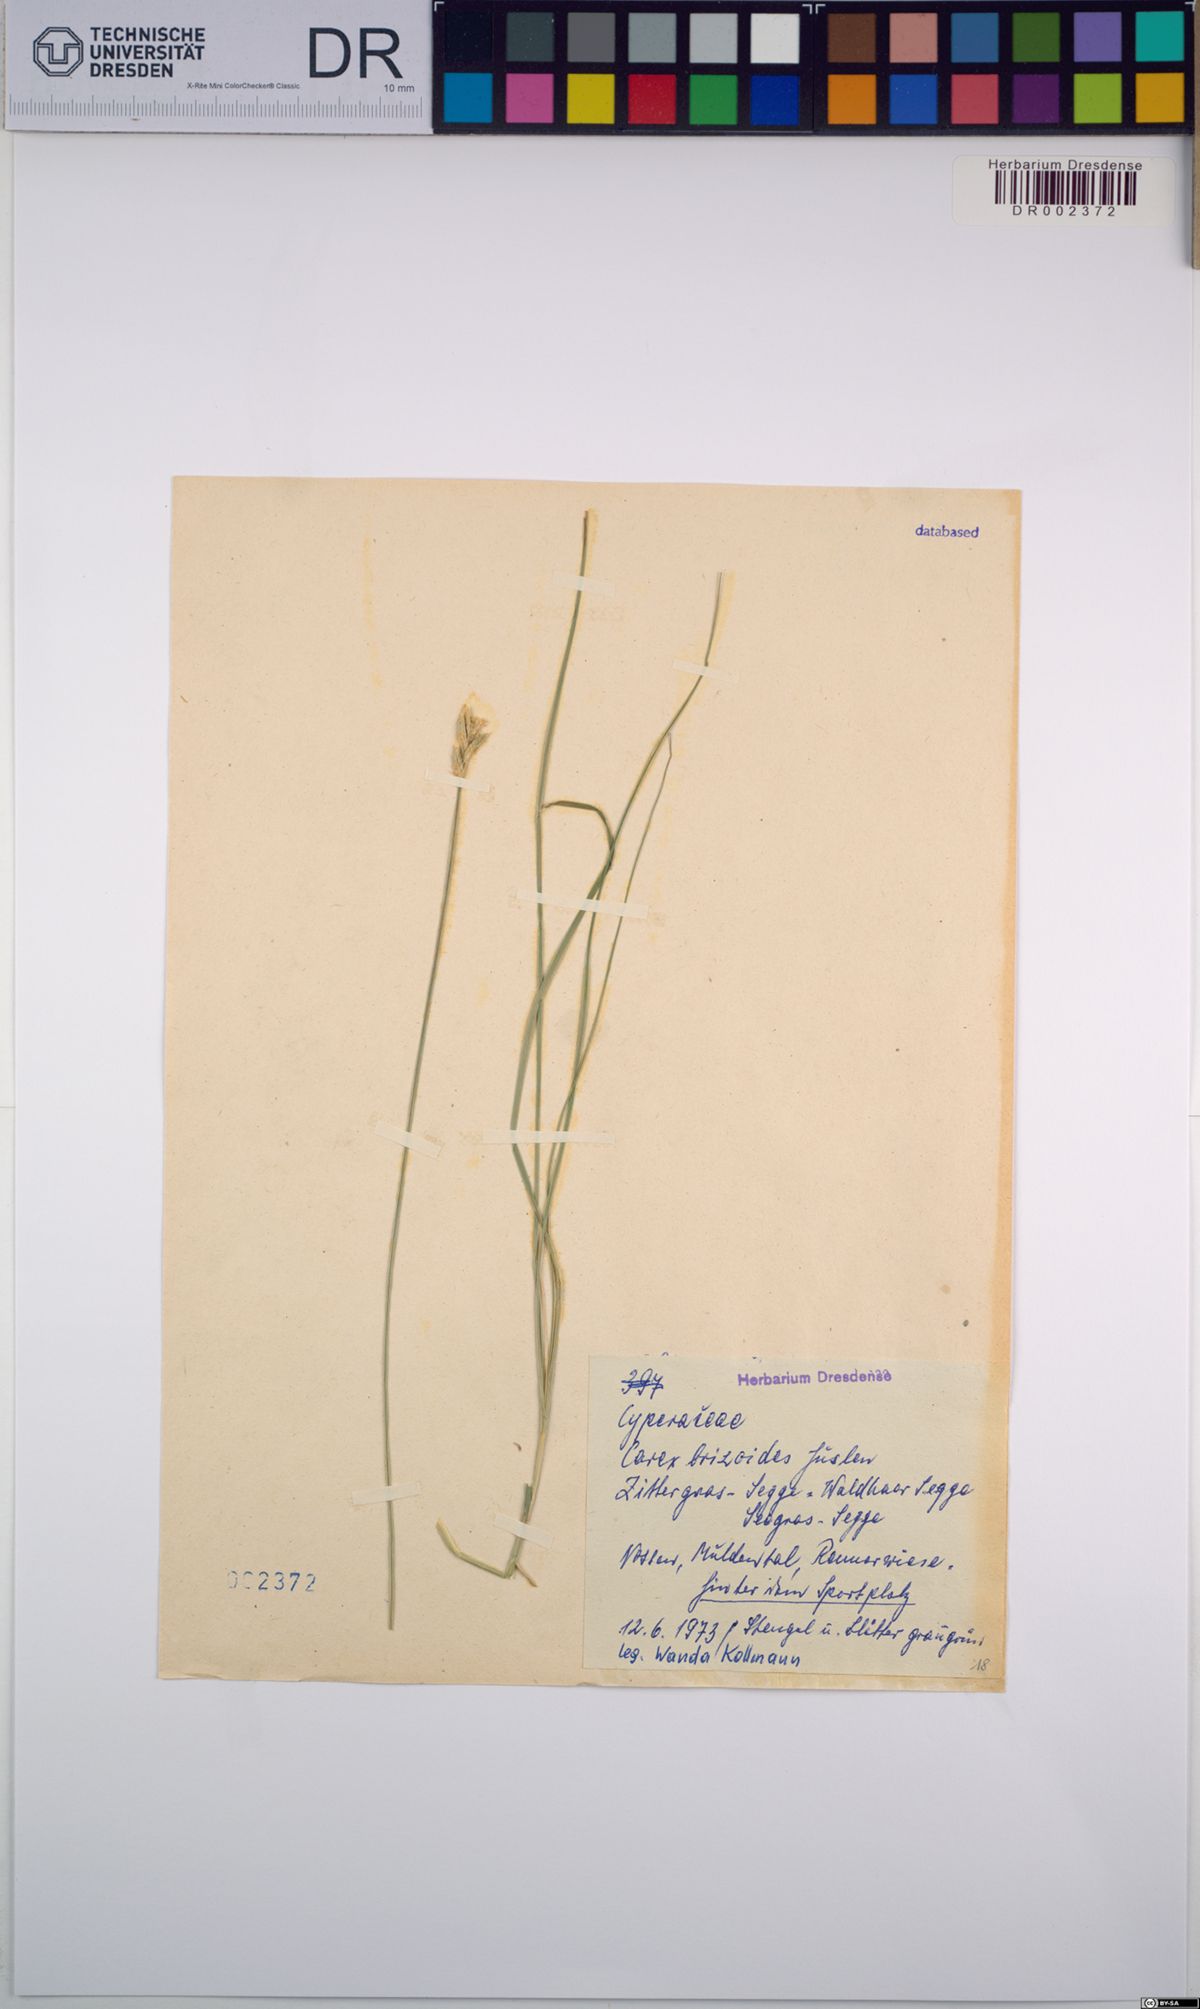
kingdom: Plantae
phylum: Tracheophyta
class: Liliopsida
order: Poales
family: Cyperaceae
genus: Carex
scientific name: Carex brizoides
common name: Quaking-grass sedge
